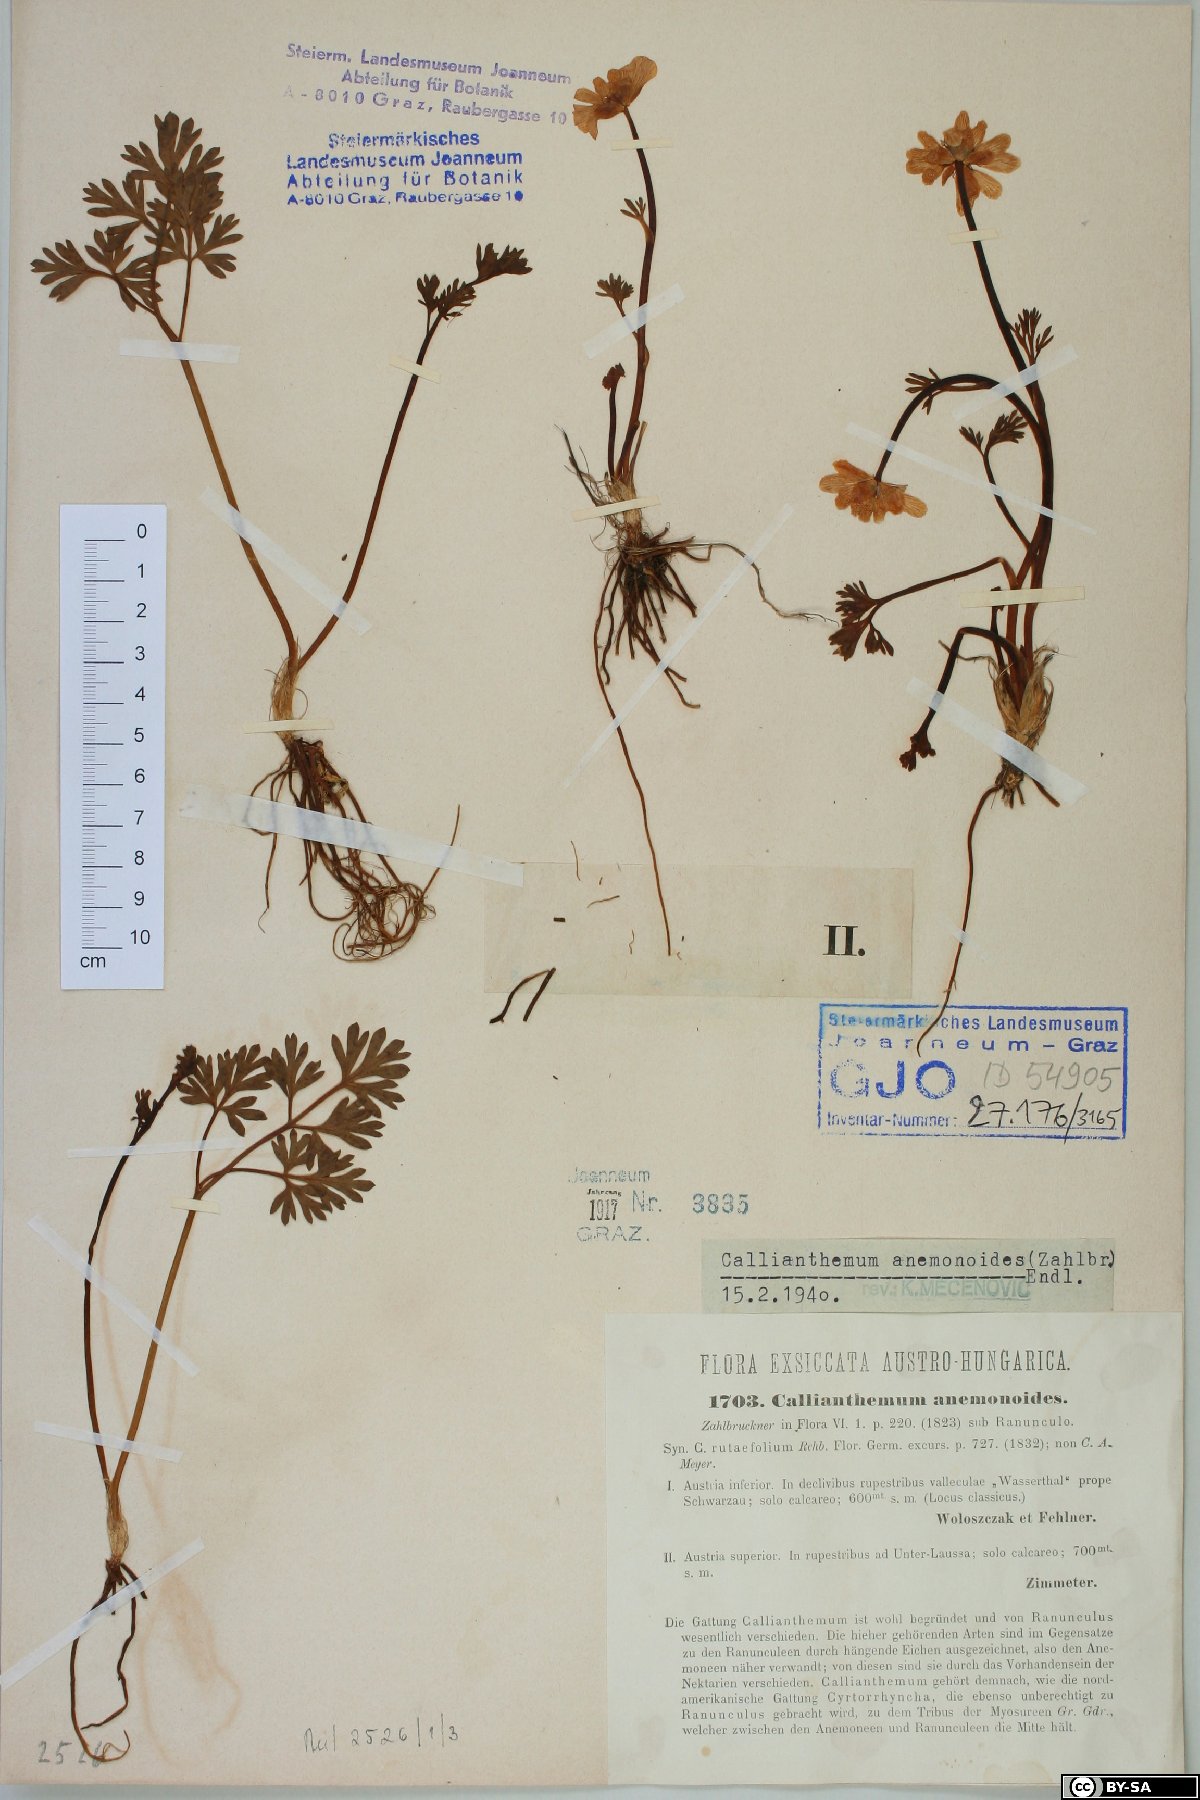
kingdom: Plantae
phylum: Tracheophyta
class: Magnoliopsida
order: Ranunculales
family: Ranunculaceae
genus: Callianthemum
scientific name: Callianthemum anemonoides
